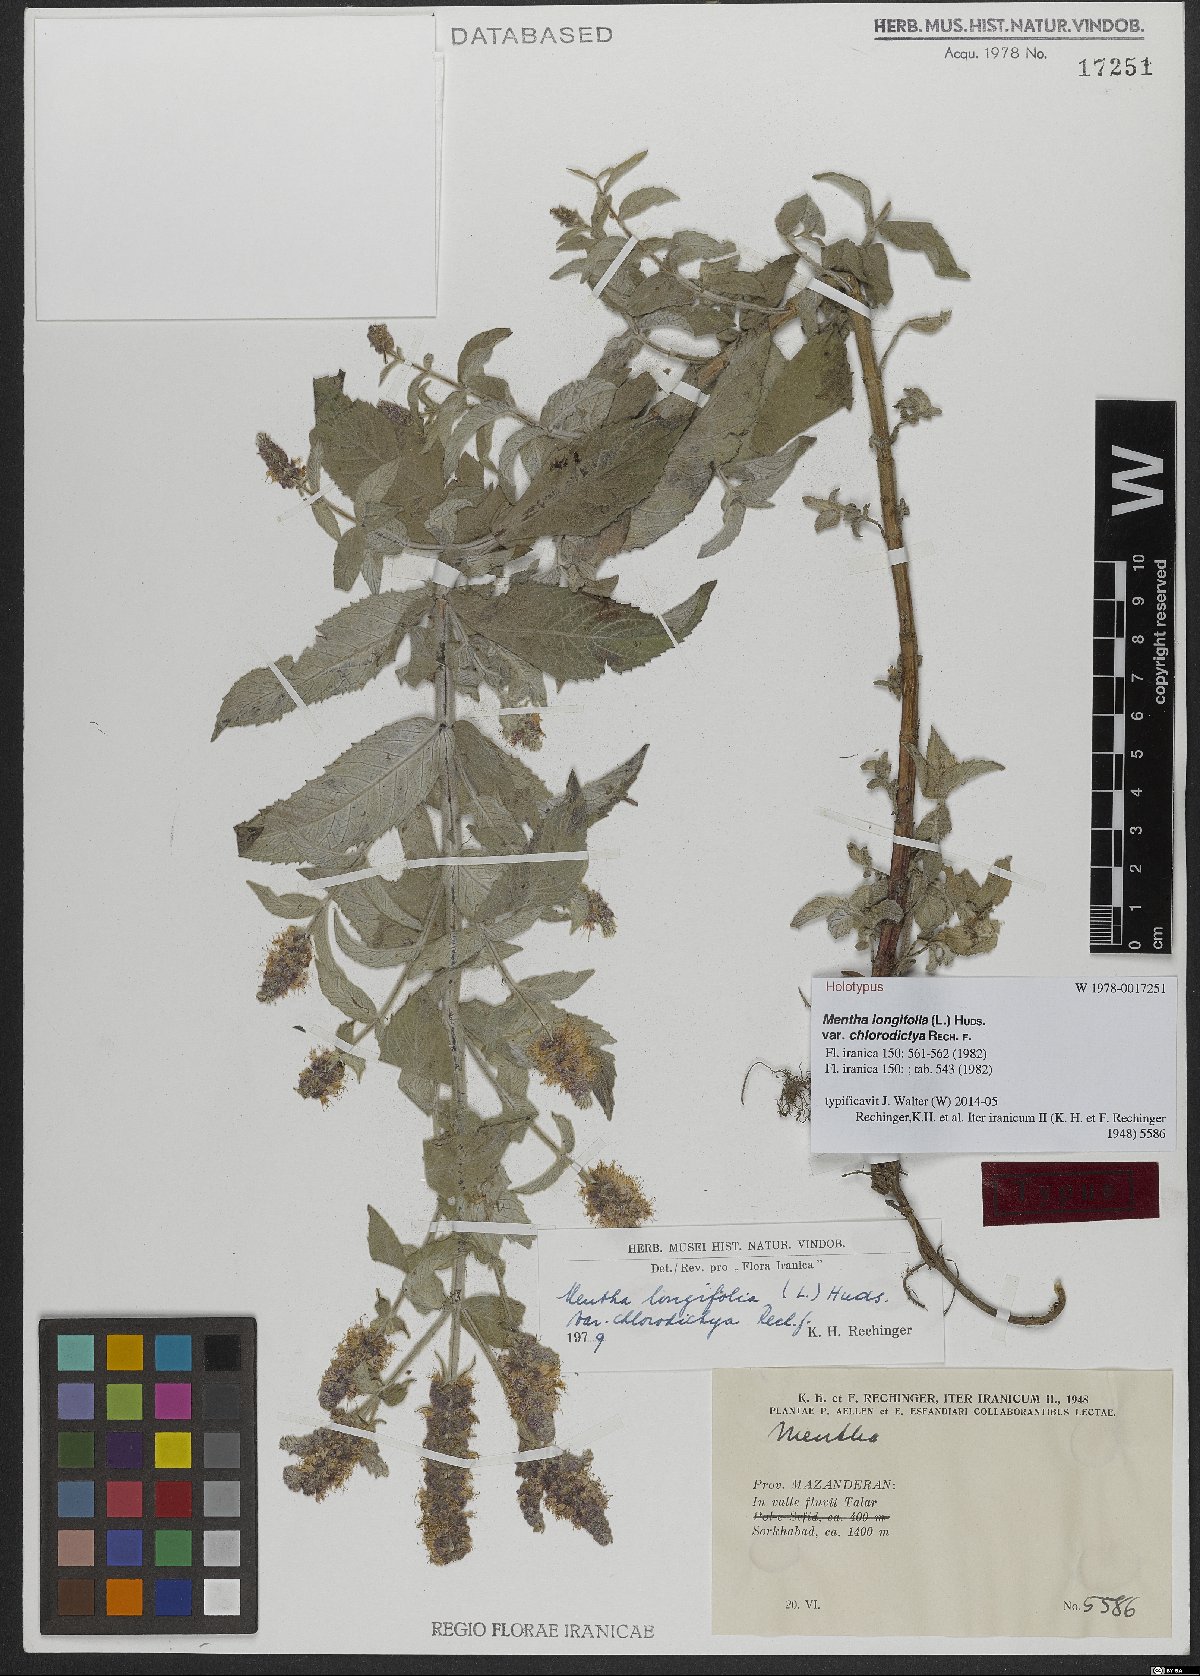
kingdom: Plantae
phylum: Tracheophyta
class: Magnoliopsida
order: Lamiales
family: Lamiaceae
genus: Mentha
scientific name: Mentha longifolia
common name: Horse mint
